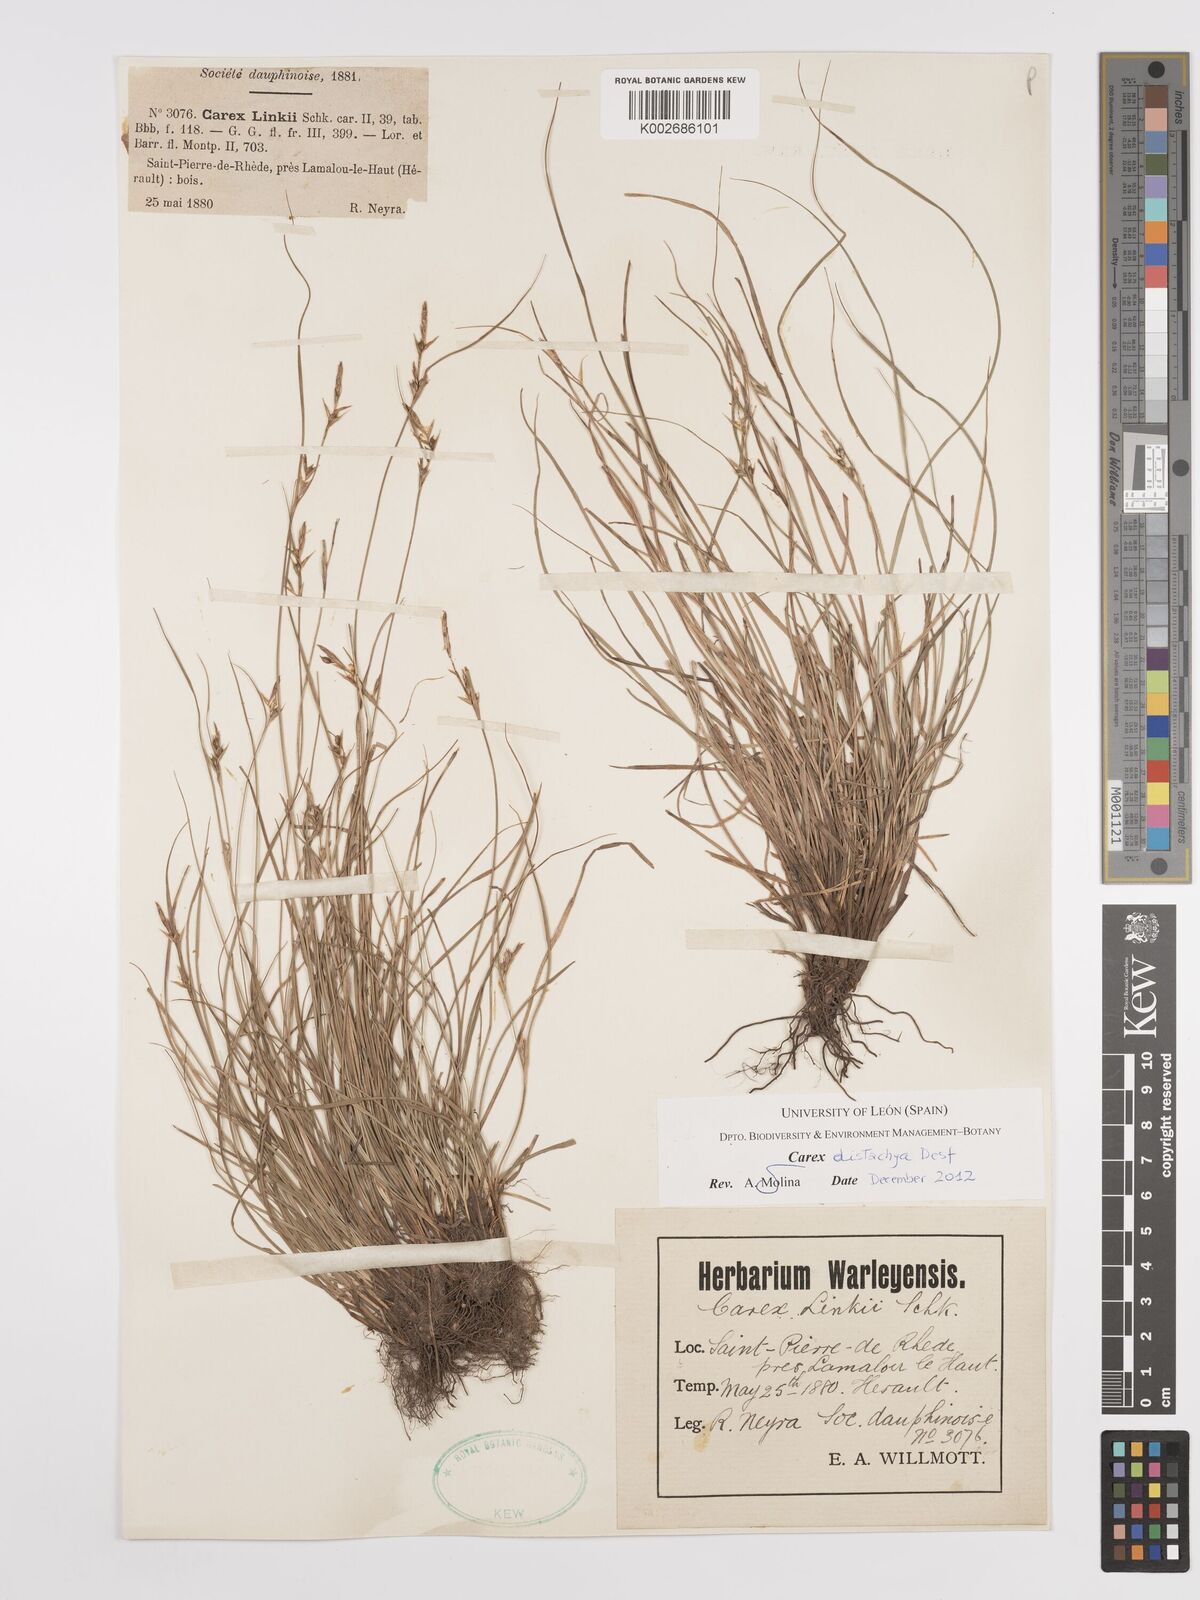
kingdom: Plantae
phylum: Tracheophyta
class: Liliopsida
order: Poales
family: Cyperaceae
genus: Carex
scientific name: Carex distachya
